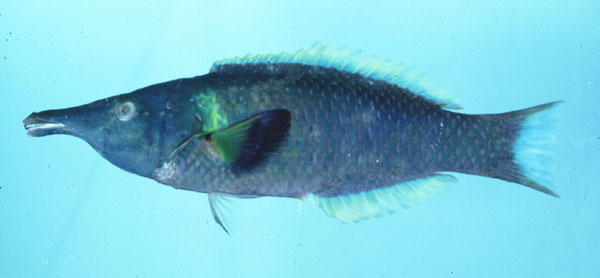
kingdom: Animalia
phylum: Chordata
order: Perciformes
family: Labridae
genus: Gomphosus
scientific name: Gomphosus caeruleus
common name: Bird wrasse
